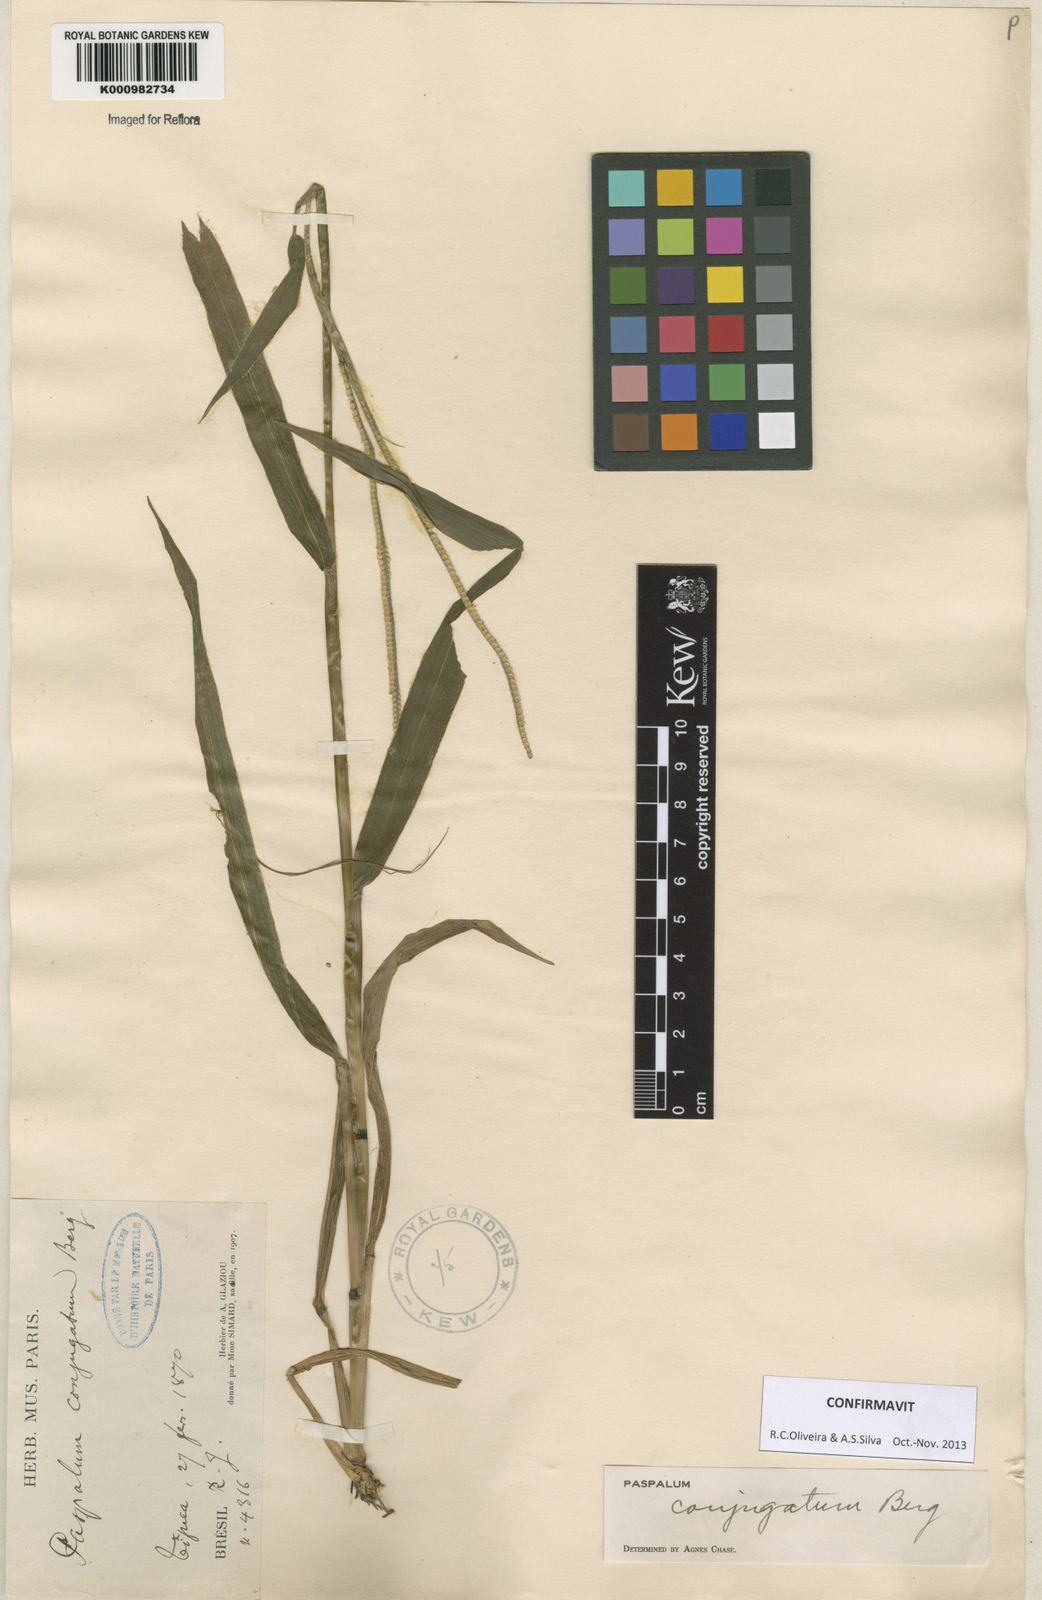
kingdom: Plantae
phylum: Tracheophyta
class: Liliopsida
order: Poales
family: Poaceae
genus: Paspalum
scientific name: Paspalum conjugatum
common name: Hilograss
